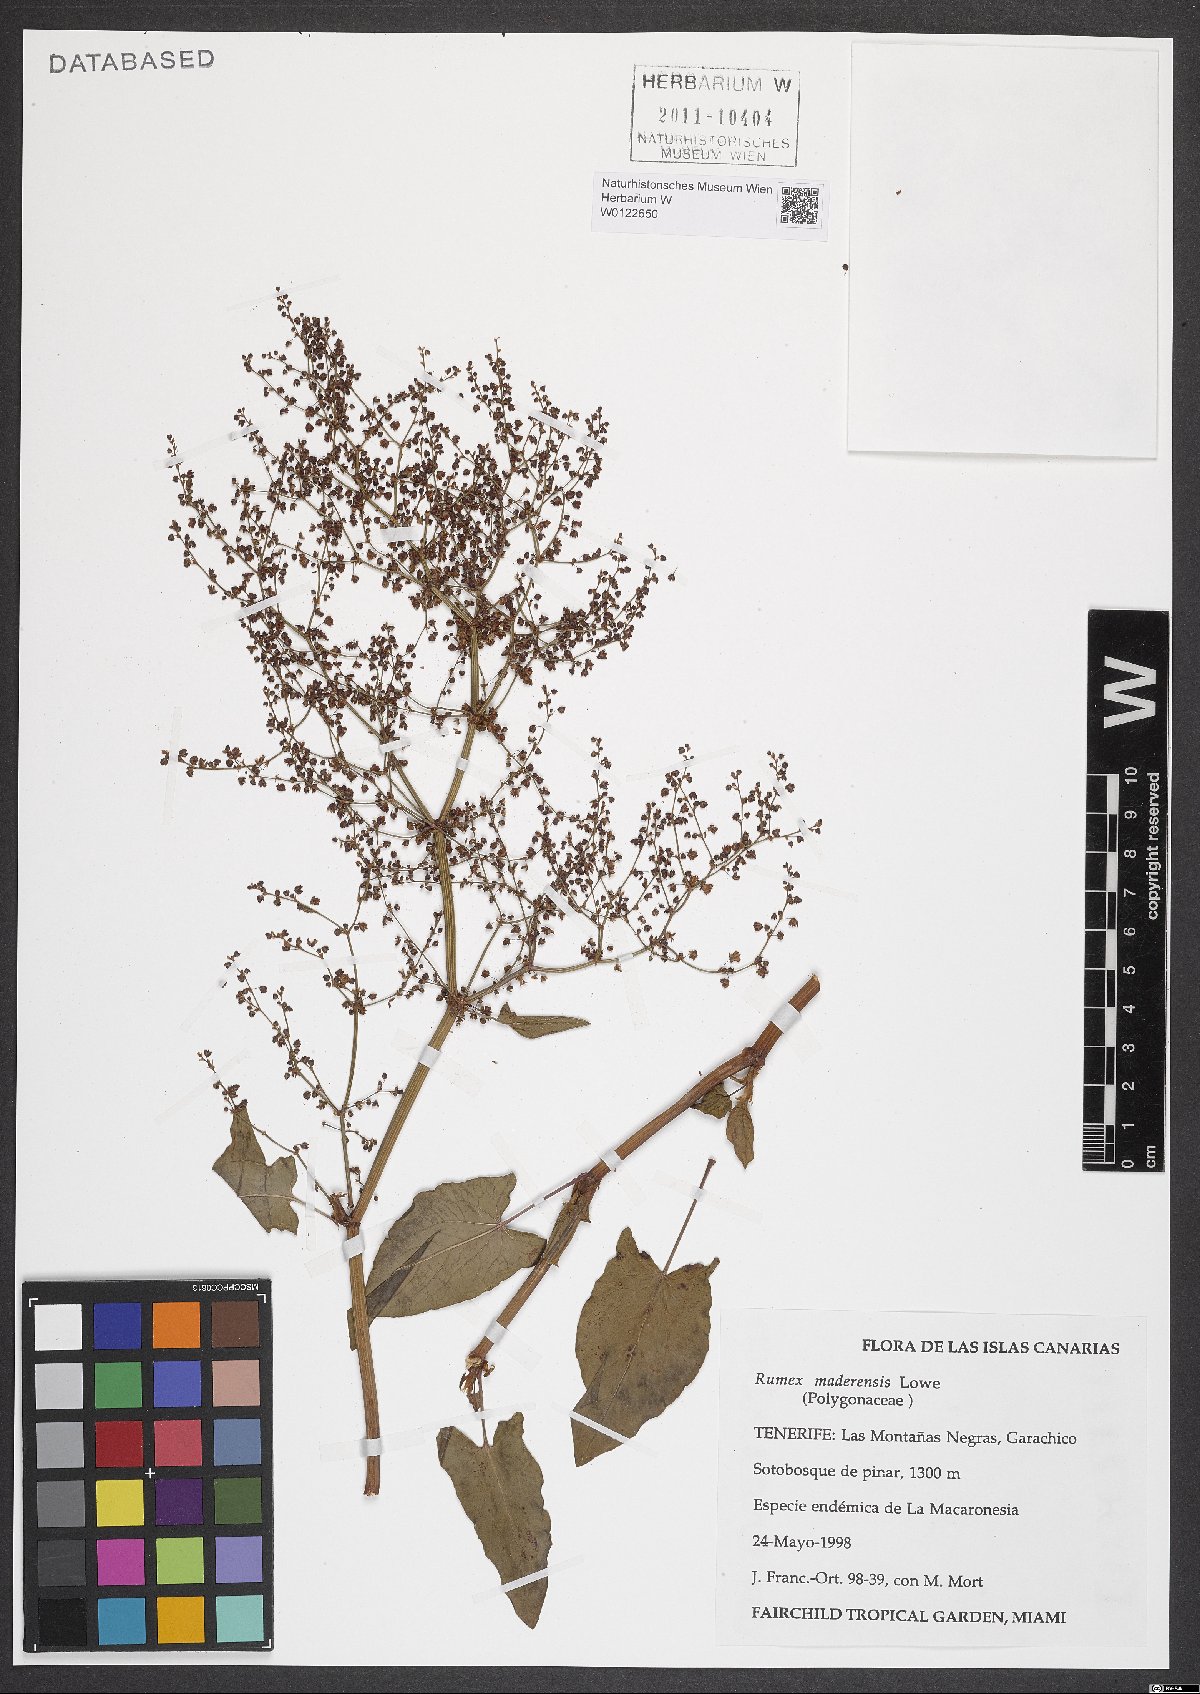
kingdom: Plantae
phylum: Tracheophyta
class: Magnoliopsida
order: Caryophyllales
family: Polygonaceae
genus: Rumex
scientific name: Rumex maderensis
